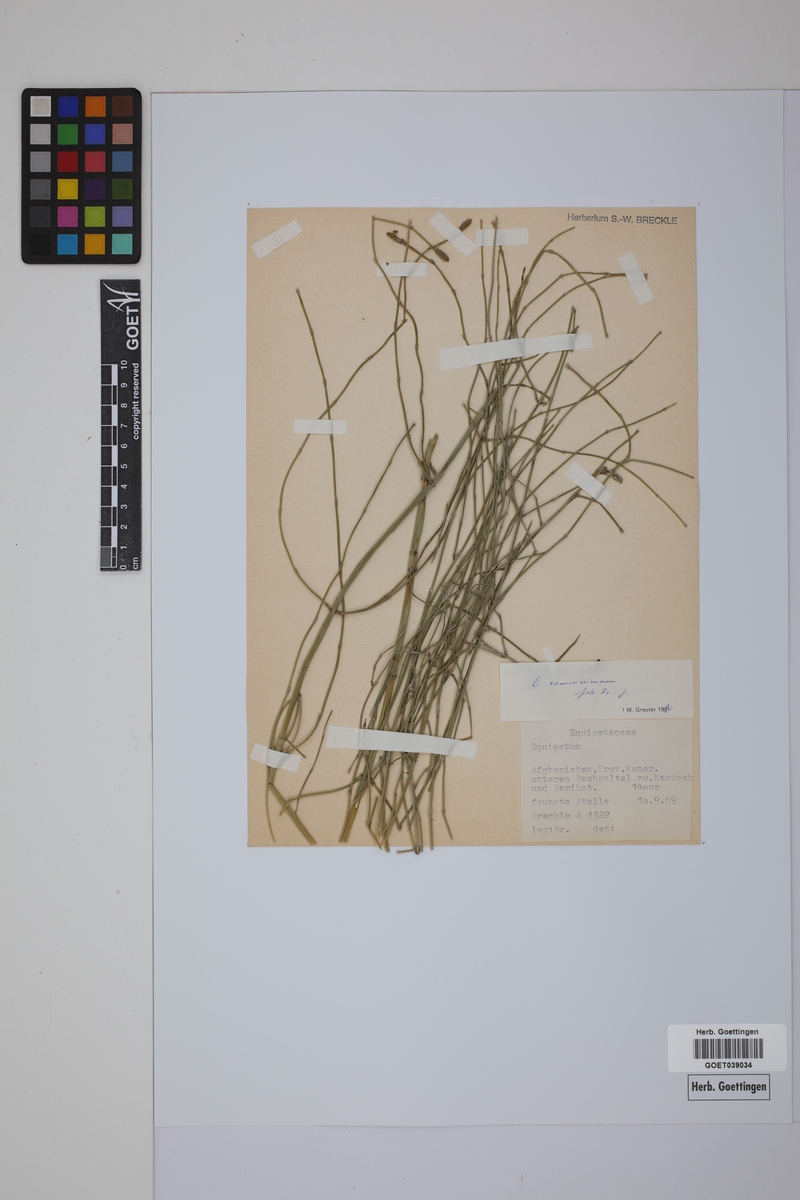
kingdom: Plantae
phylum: Tracheophyta
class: Polypodiopsida
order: Equisetales
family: Equisetaceae
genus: Equisetum
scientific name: Equisetum giganteum
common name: Giant horsetail
